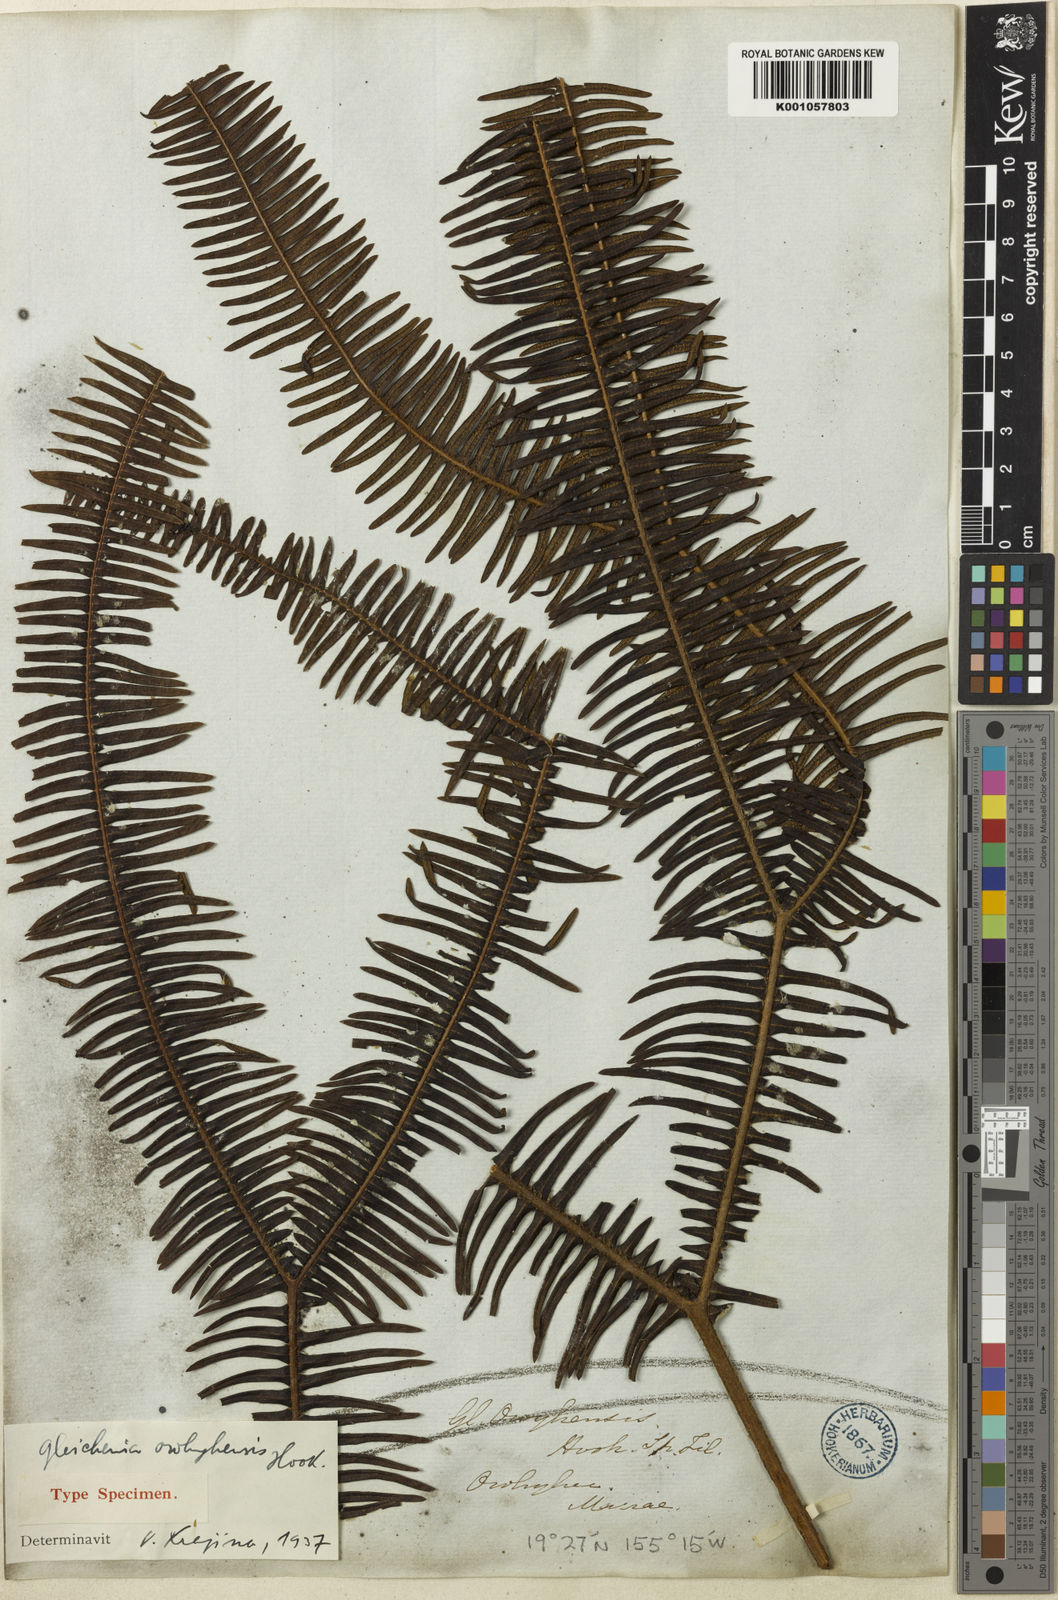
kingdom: Plantae
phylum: Tracheophyta
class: Polypodiopsida
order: Gleicheniales
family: Gleicheniaceae
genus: Sticherus
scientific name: Sticherus owhyhensis
